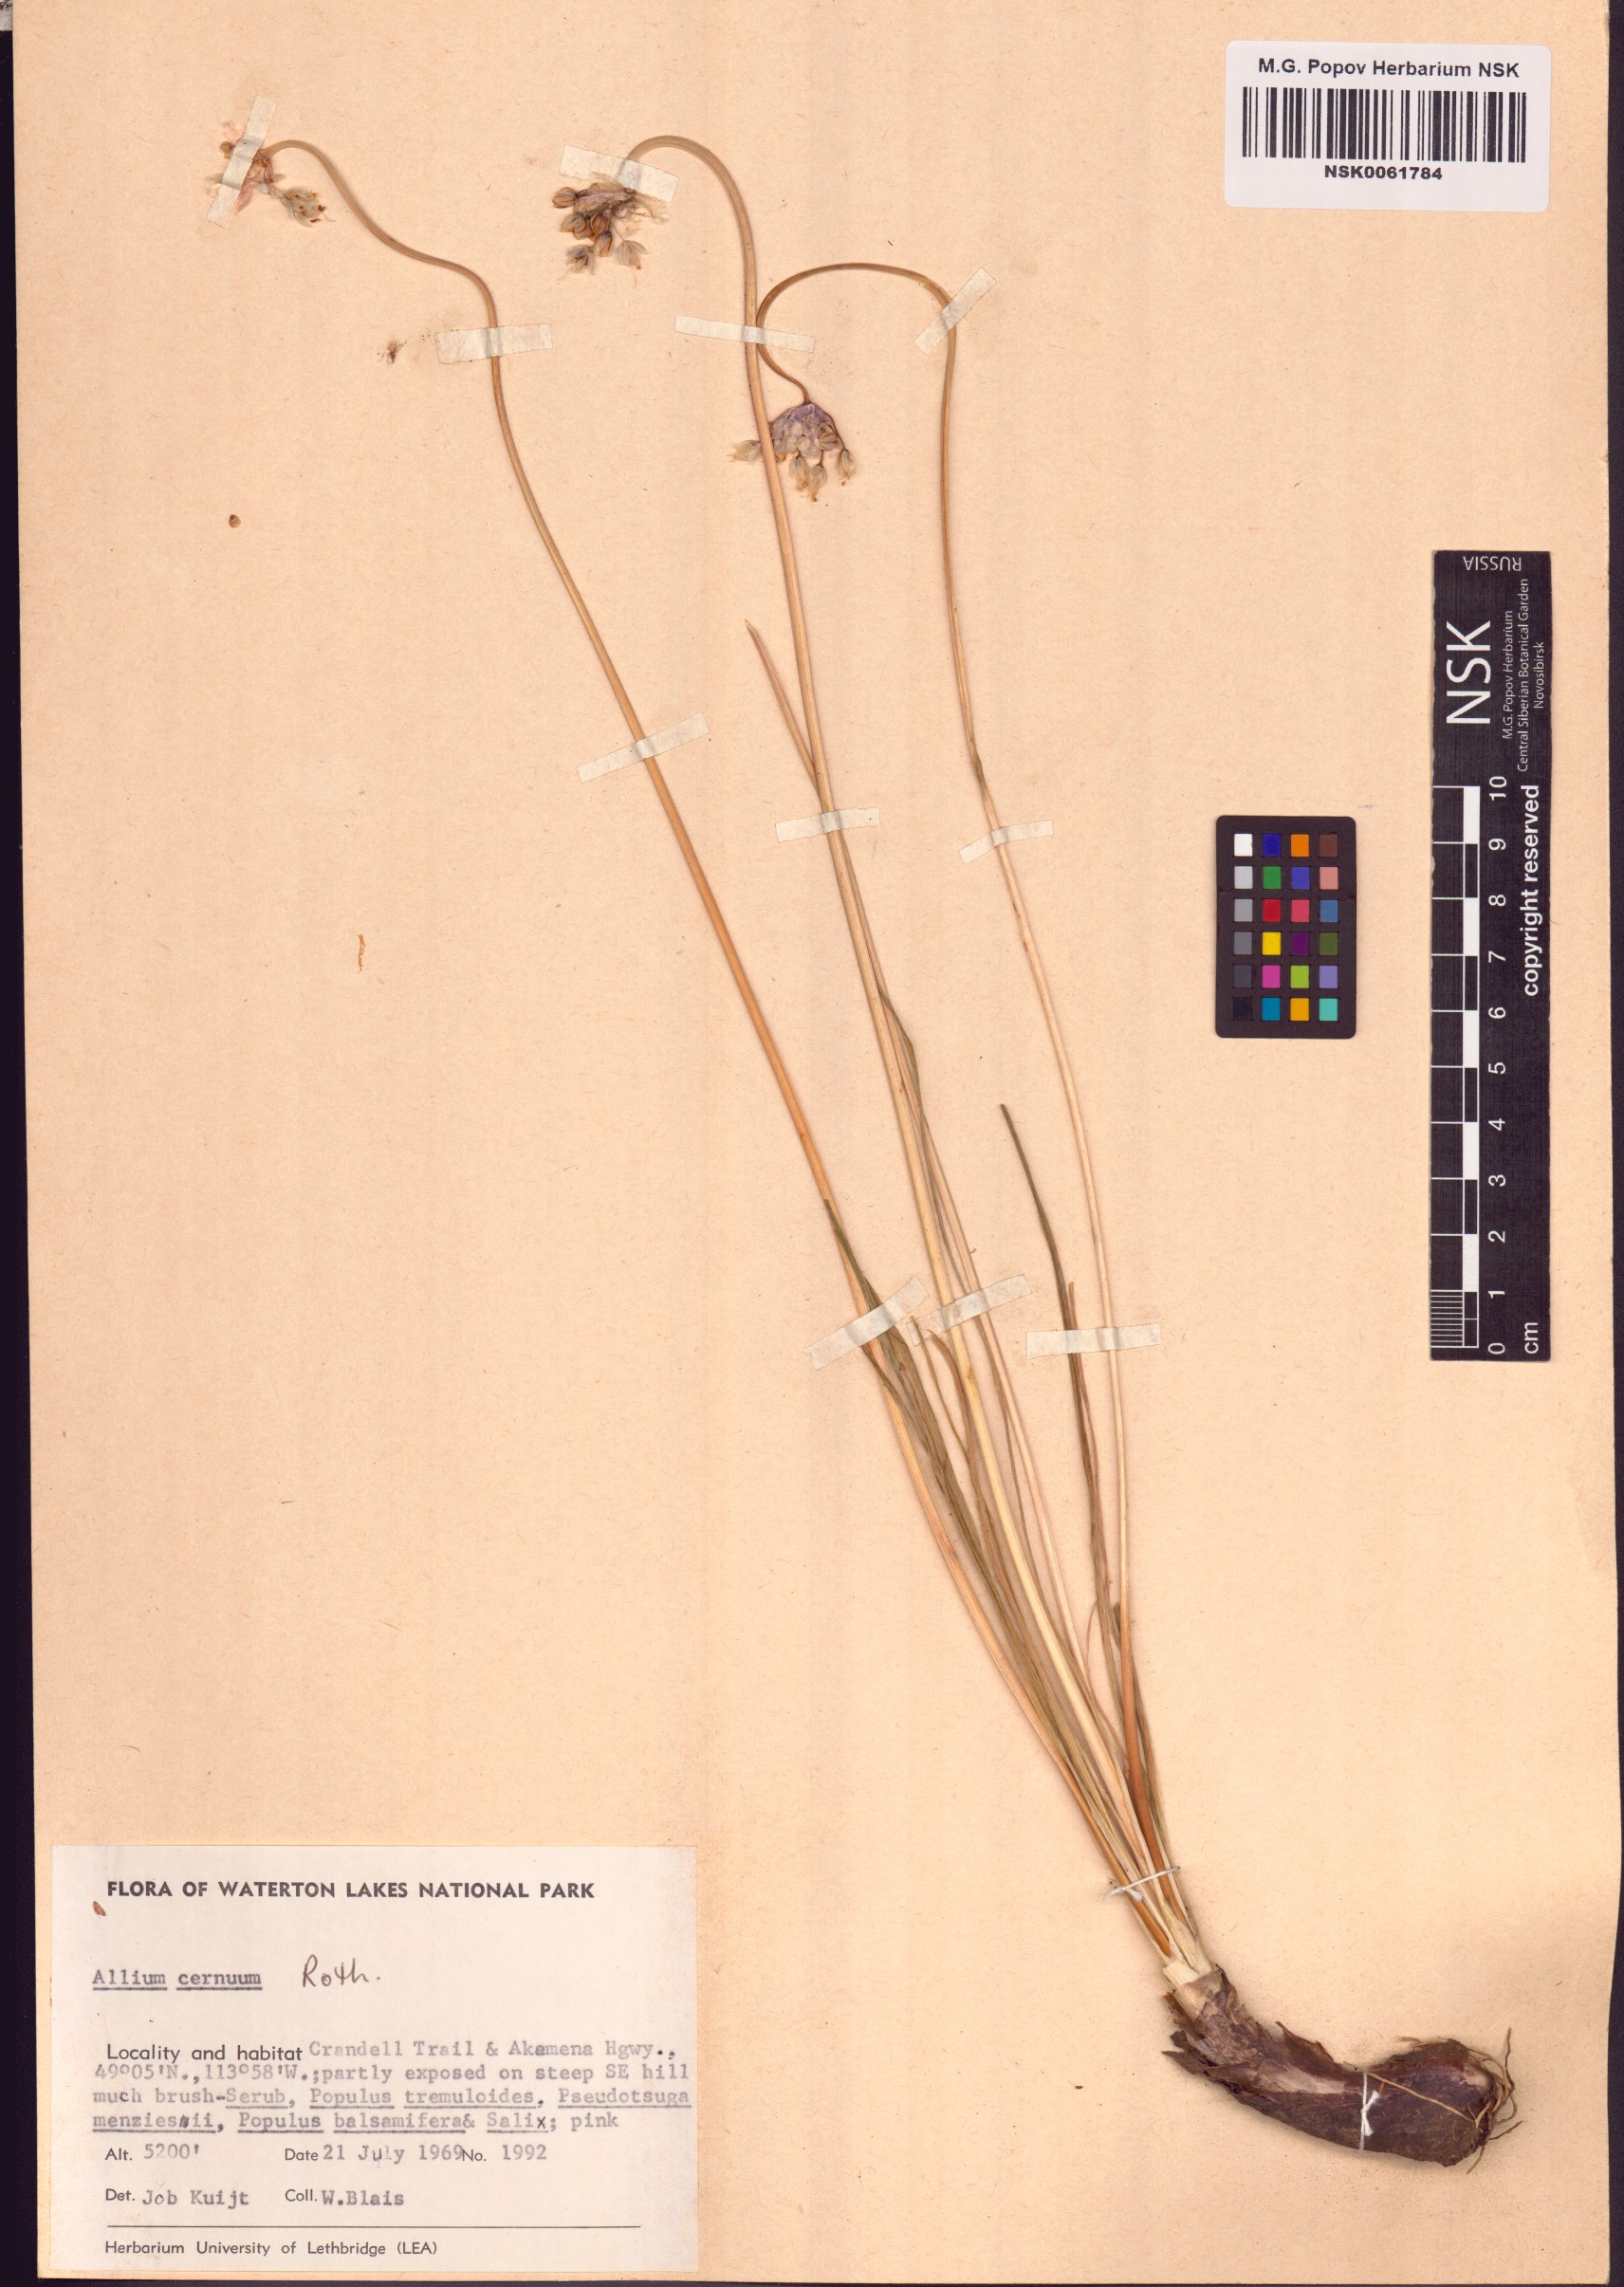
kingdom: Plantae
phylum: Tracheophyta
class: Liliopsida
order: Asparagales
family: Amaryllidaceae
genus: Allium
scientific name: Allium cernuum
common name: Nodding onion
